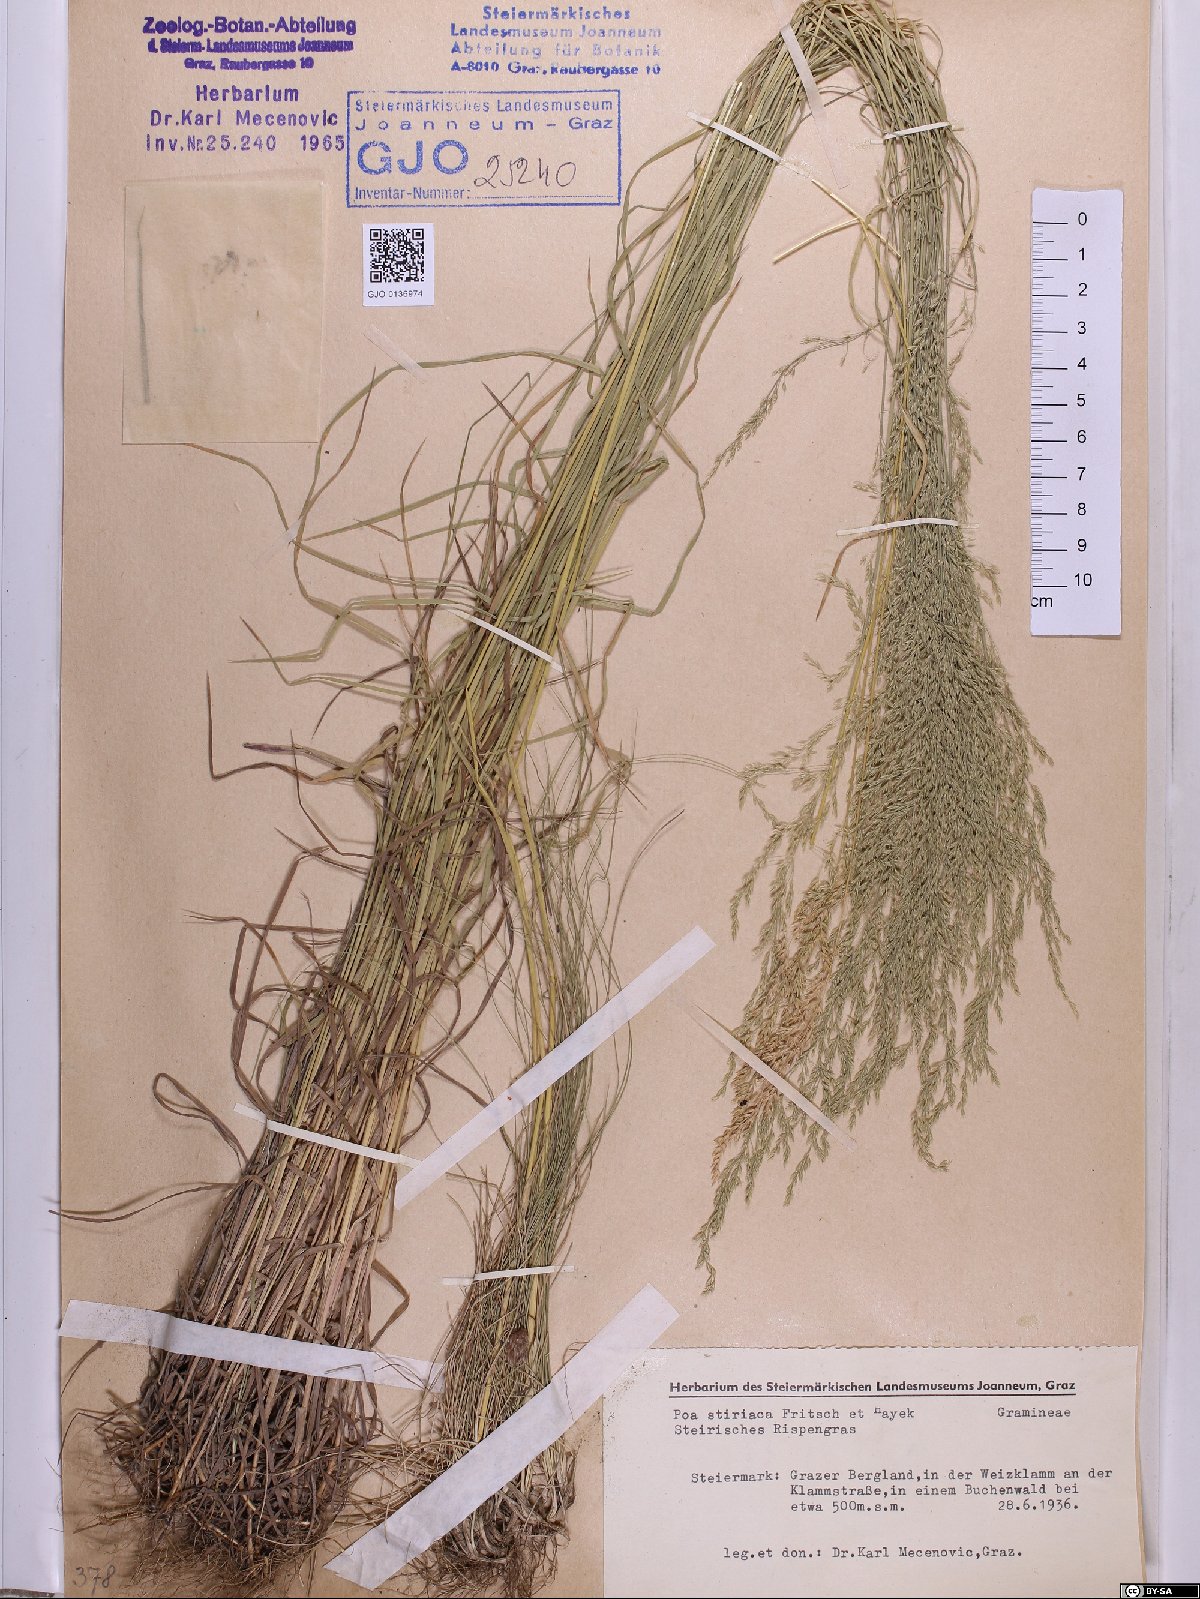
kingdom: Plantae
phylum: Tracheophyta
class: Liliopsida
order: Poales
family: Poaceae
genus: Poa
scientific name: Poa stiriaca
